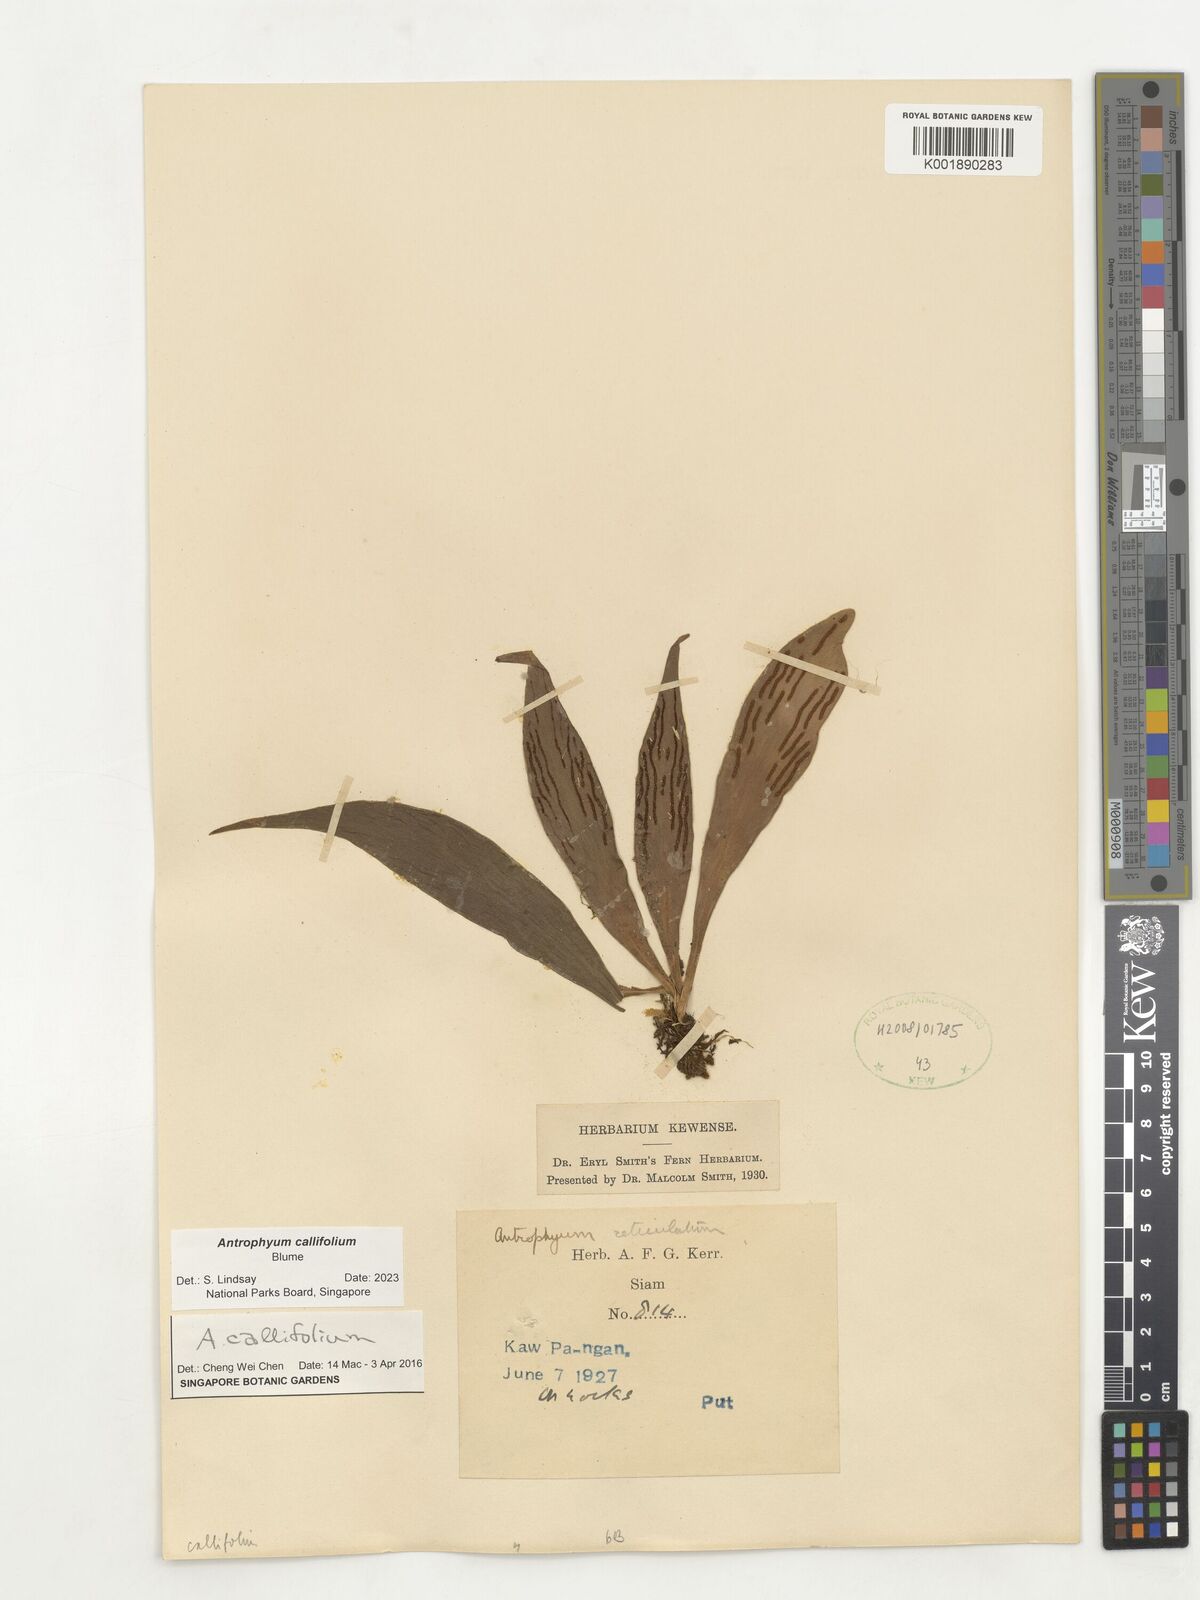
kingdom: Plantae
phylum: Tracheophyta
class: Polypodiopsida
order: Polypodiales
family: Pteridaceae
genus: Antrophyum
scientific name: Antrophyum callifolium
